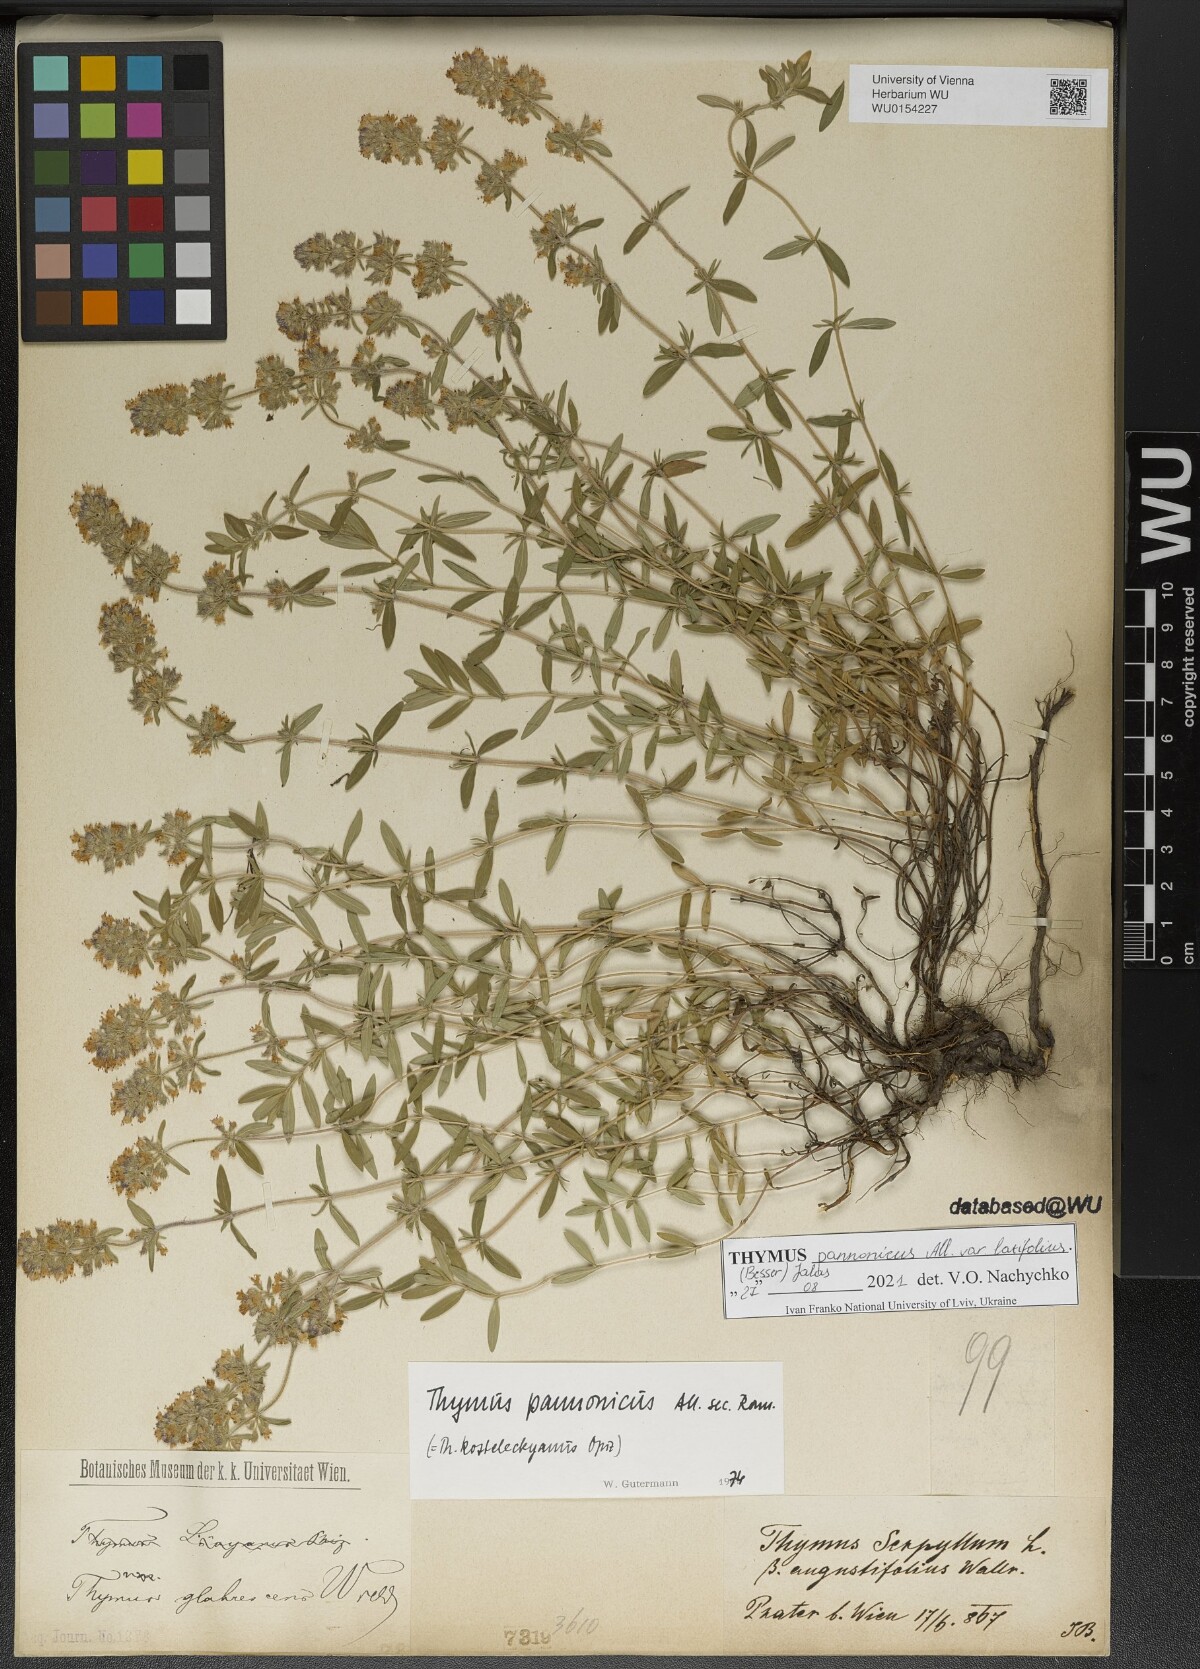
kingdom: Plantae
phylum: Tracheophyta
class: Magnoliopsida
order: Lamiales
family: Lamiaceae
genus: Thymus
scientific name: Thymus pannonicus
